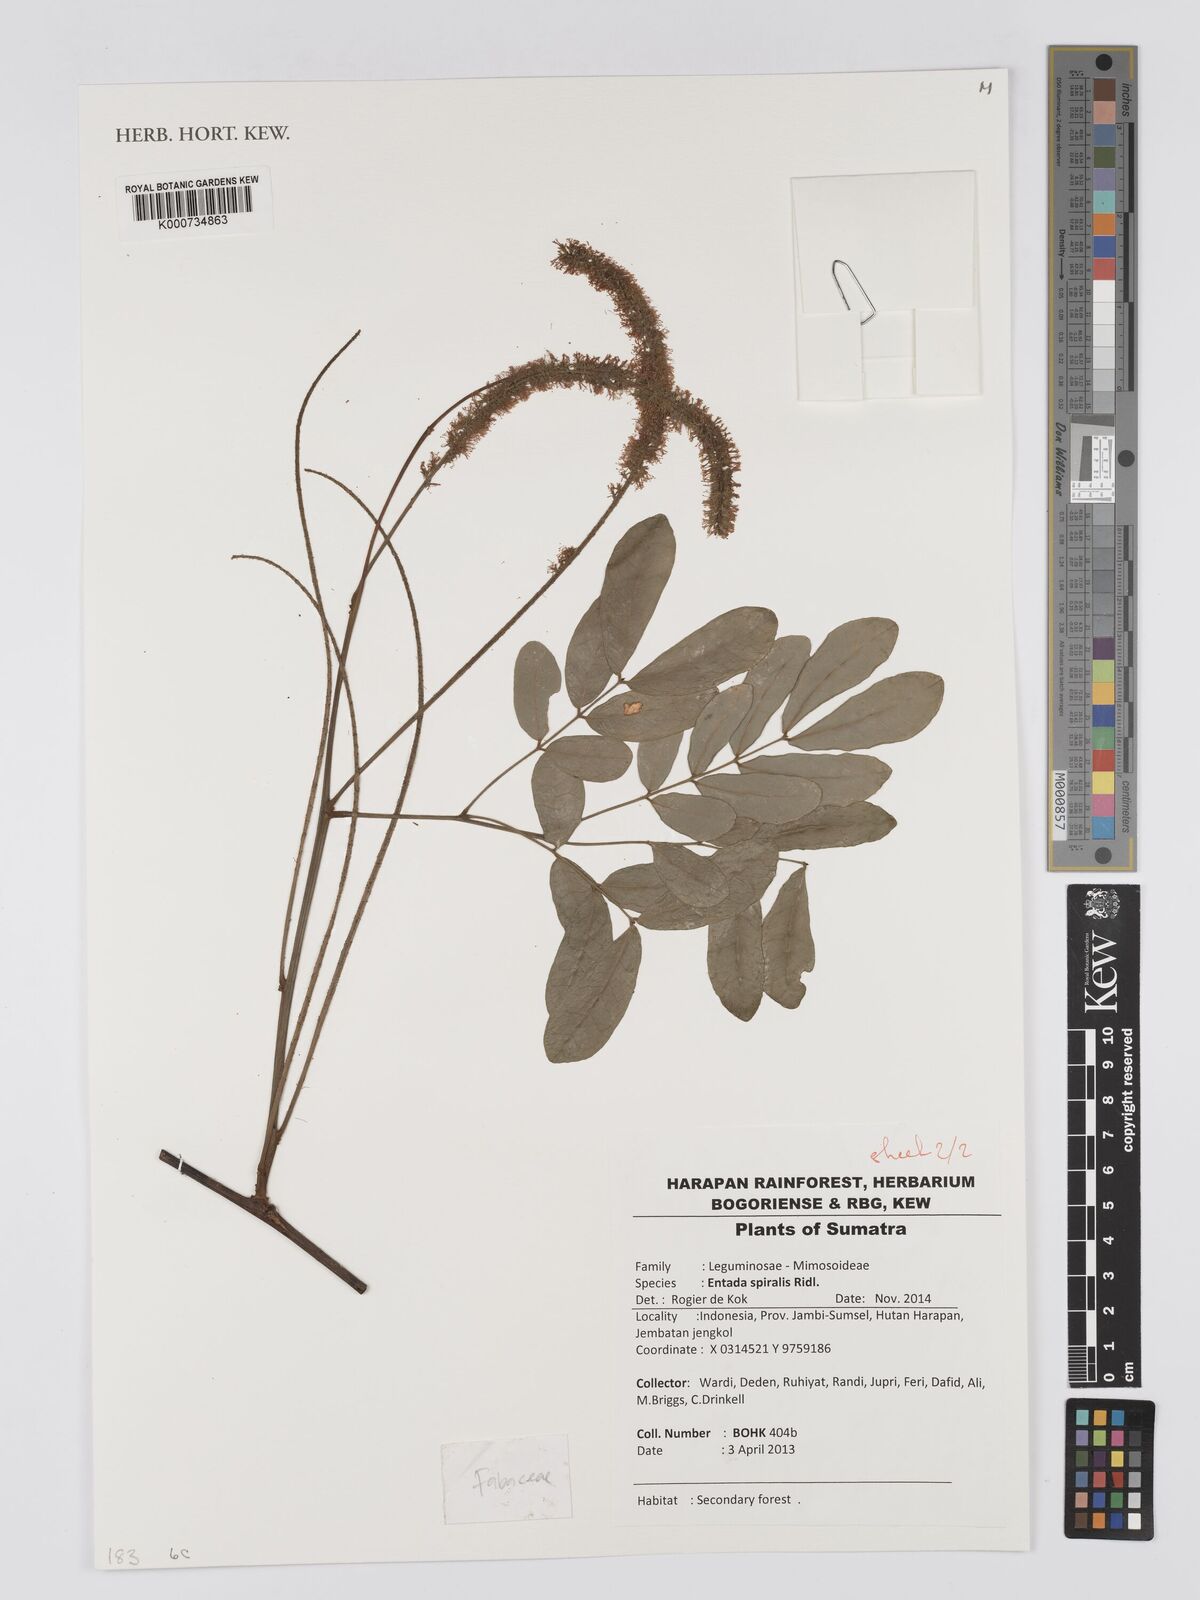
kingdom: Plantae
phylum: Tracheophyta
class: Magnoliopsida
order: Fabales
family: Fabaceae
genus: Entada
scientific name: Entada spiralis
